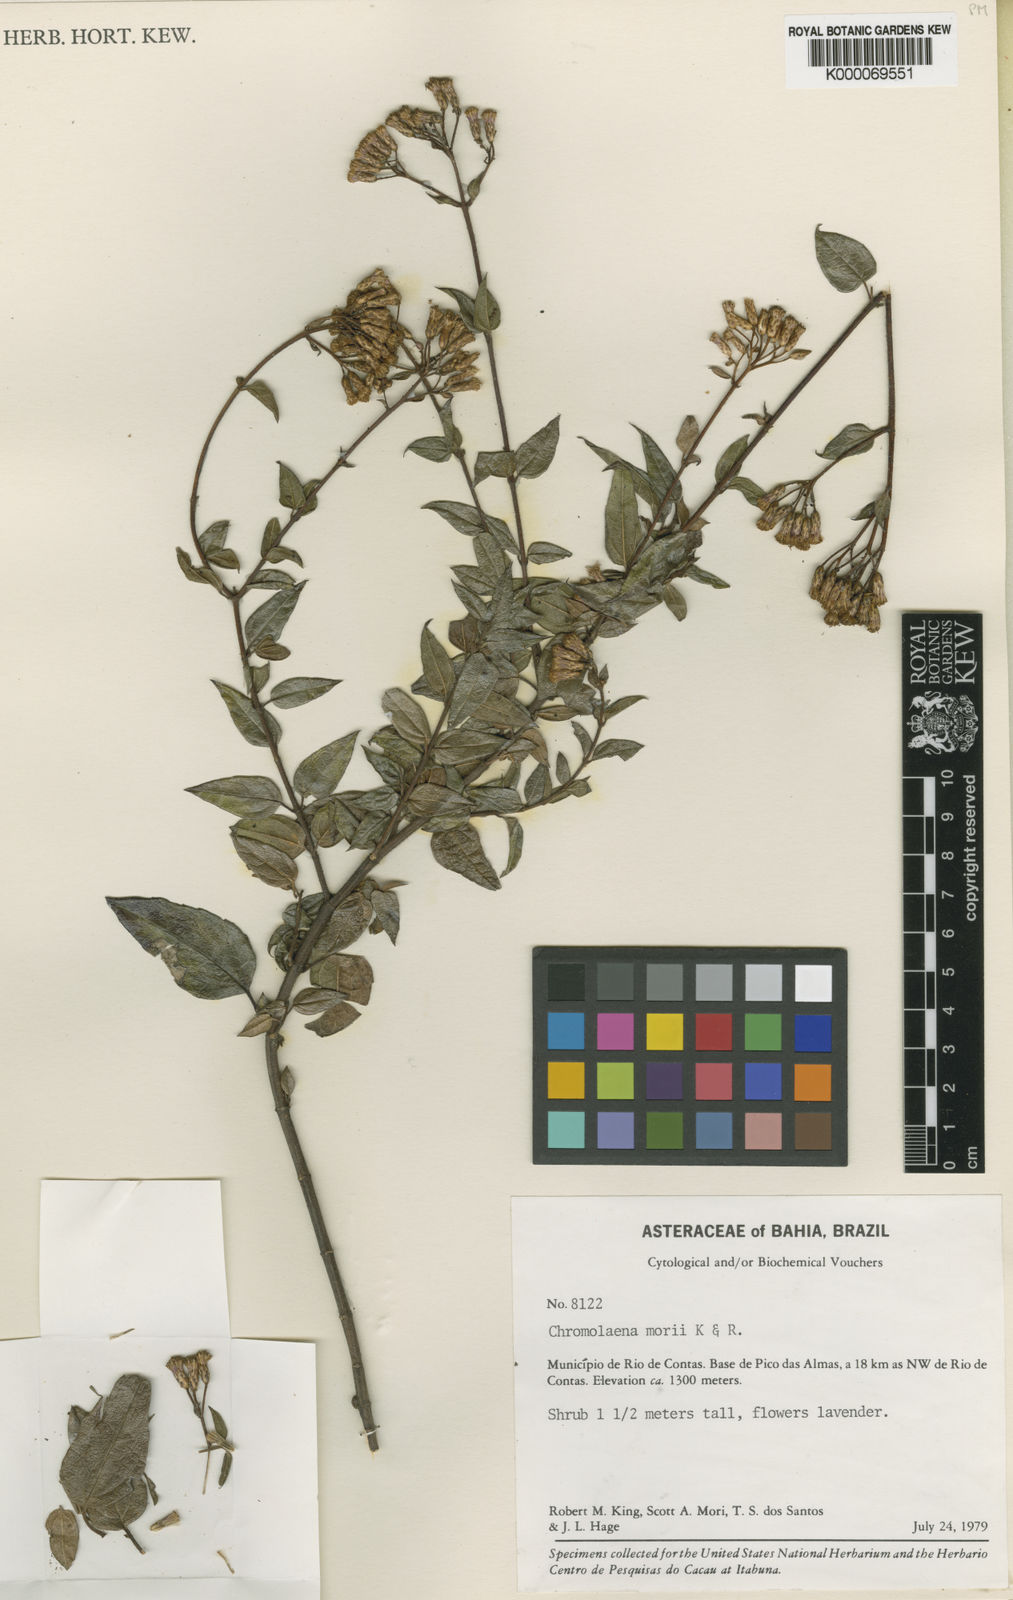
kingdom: Plantae
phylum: Tracheophyta
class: Magnoliopsida
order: Asterales
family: Asteraceae
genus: Chromolaena
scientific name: Chromolaena morii
